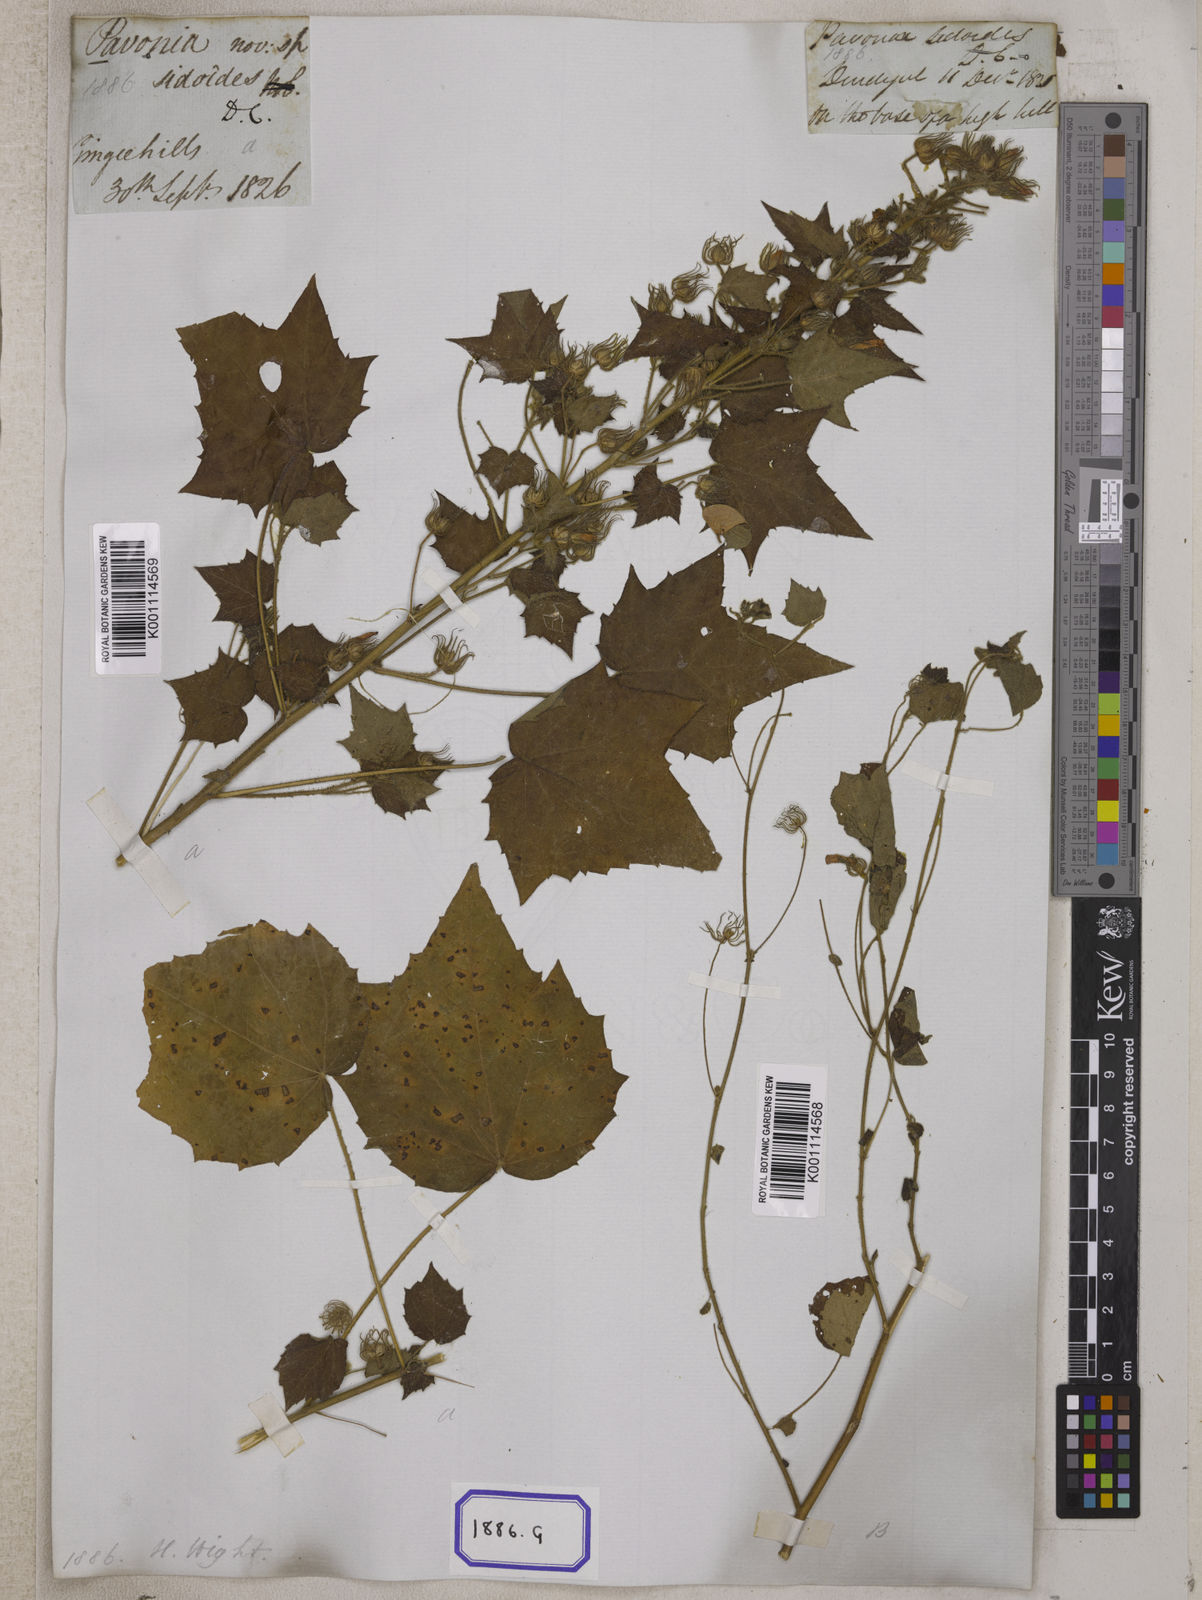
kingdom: Plantae
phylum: Tracheophyta
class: Magnoliopsida
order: Malvales
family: Malvaceae
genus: Pavonia
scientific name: Pavonia zeylonica
